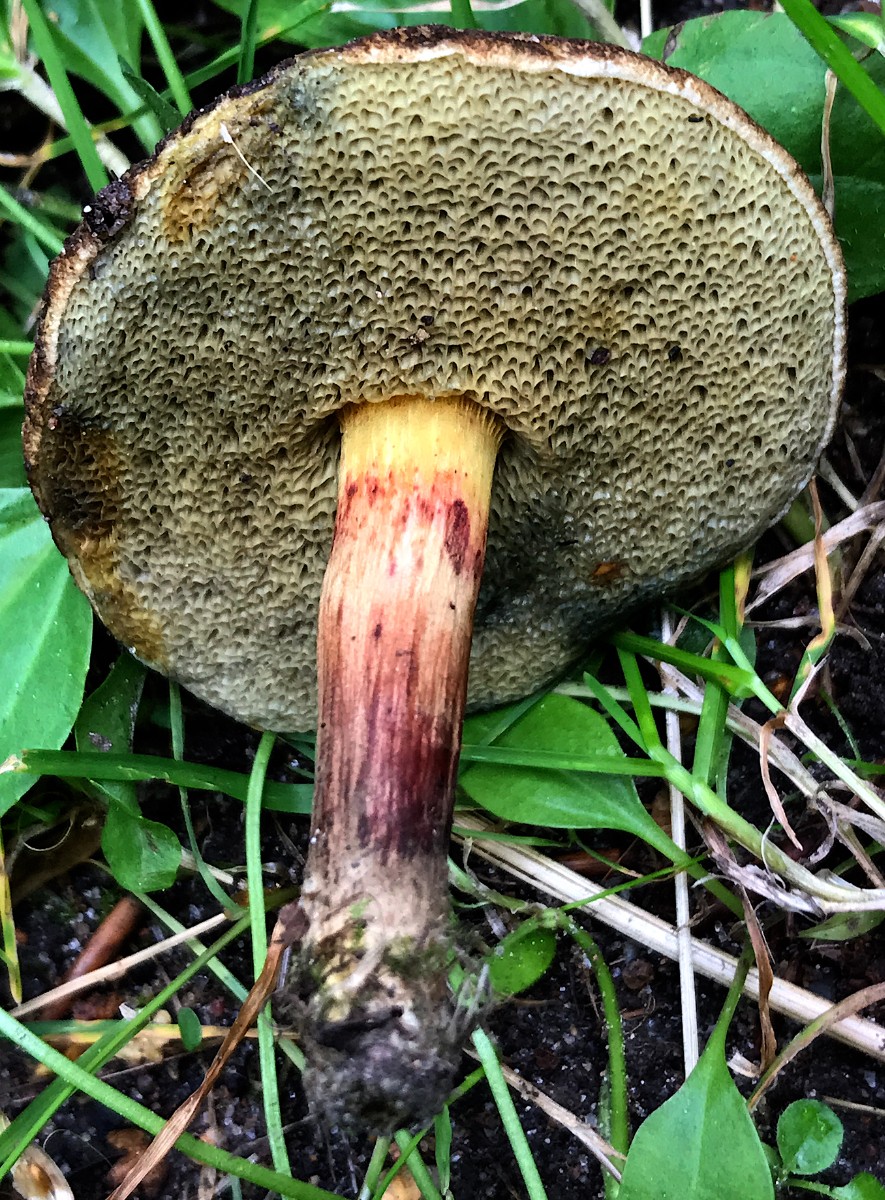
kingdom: Fungi
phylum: Basidiomycota
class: Agaricomycetes
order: Boletales
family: Boletaceae
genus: Xerocomellus
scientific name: Xerocomellus chrysenteron
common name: rødsprukken rørhat
